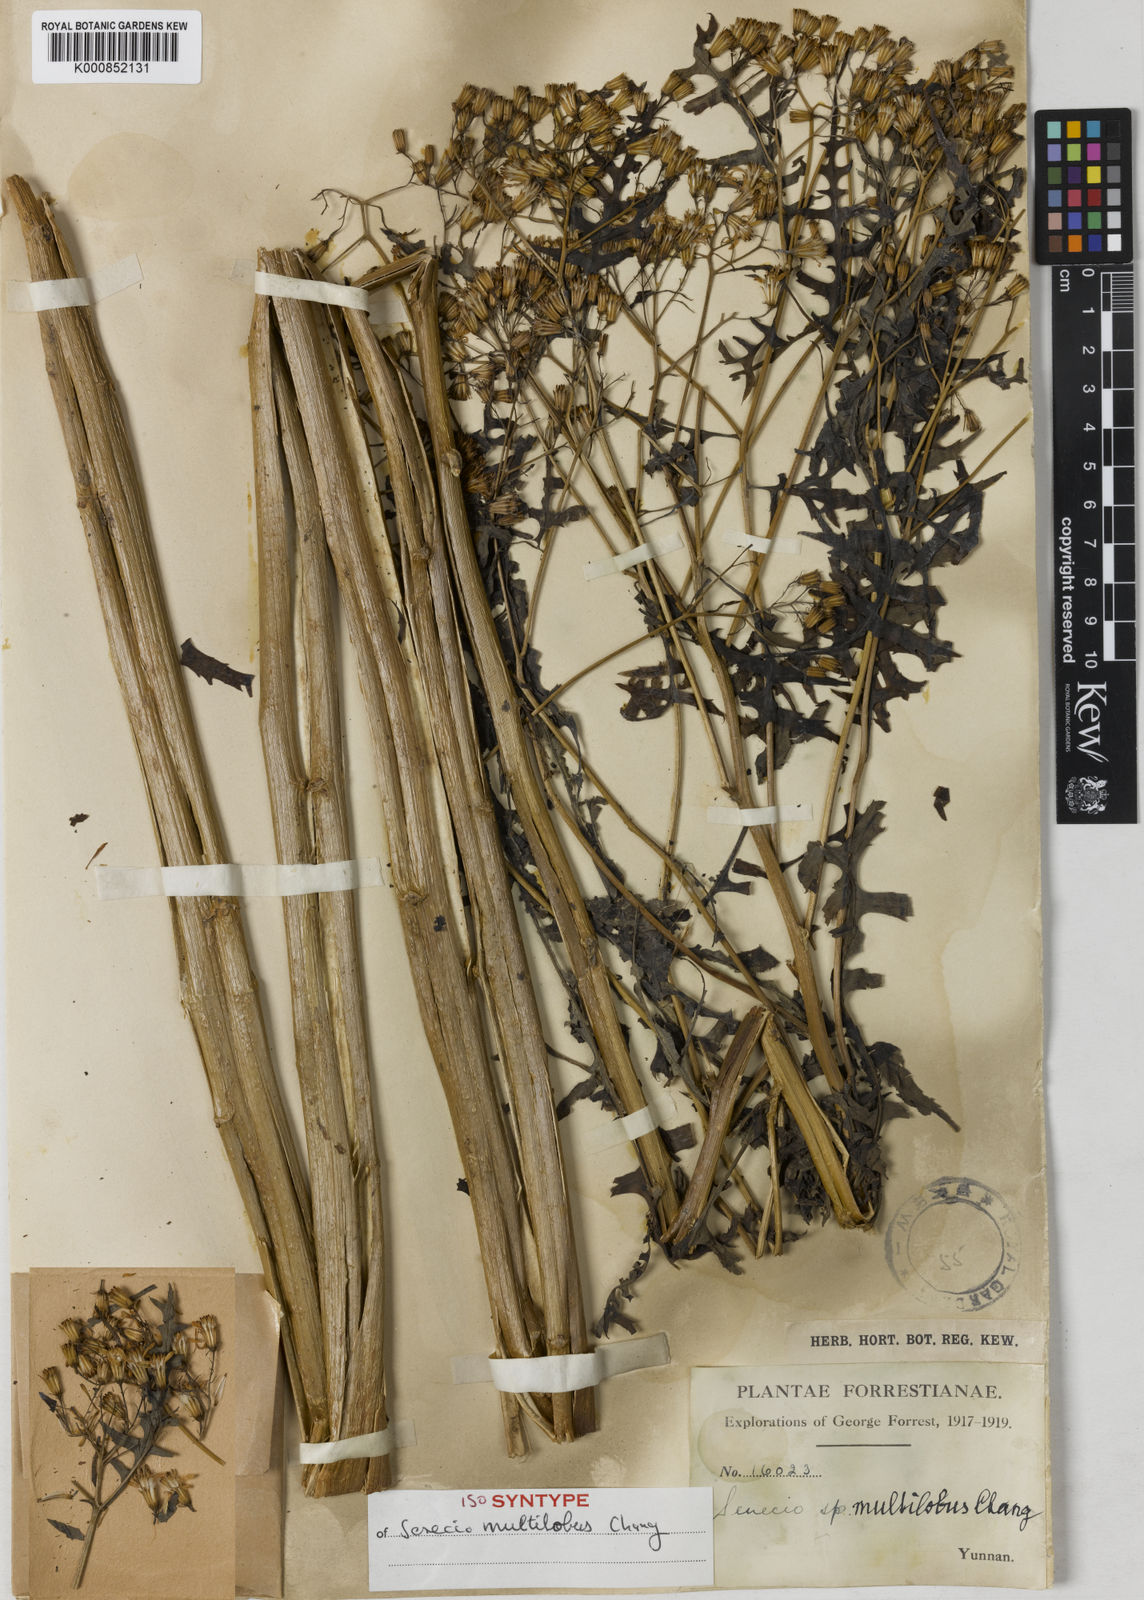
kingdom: Plantae
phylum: Tracheophyta
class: Magnoliopsida
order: Asterales
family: Asteraceae
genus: Senecio
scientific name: Senecio multilobus
